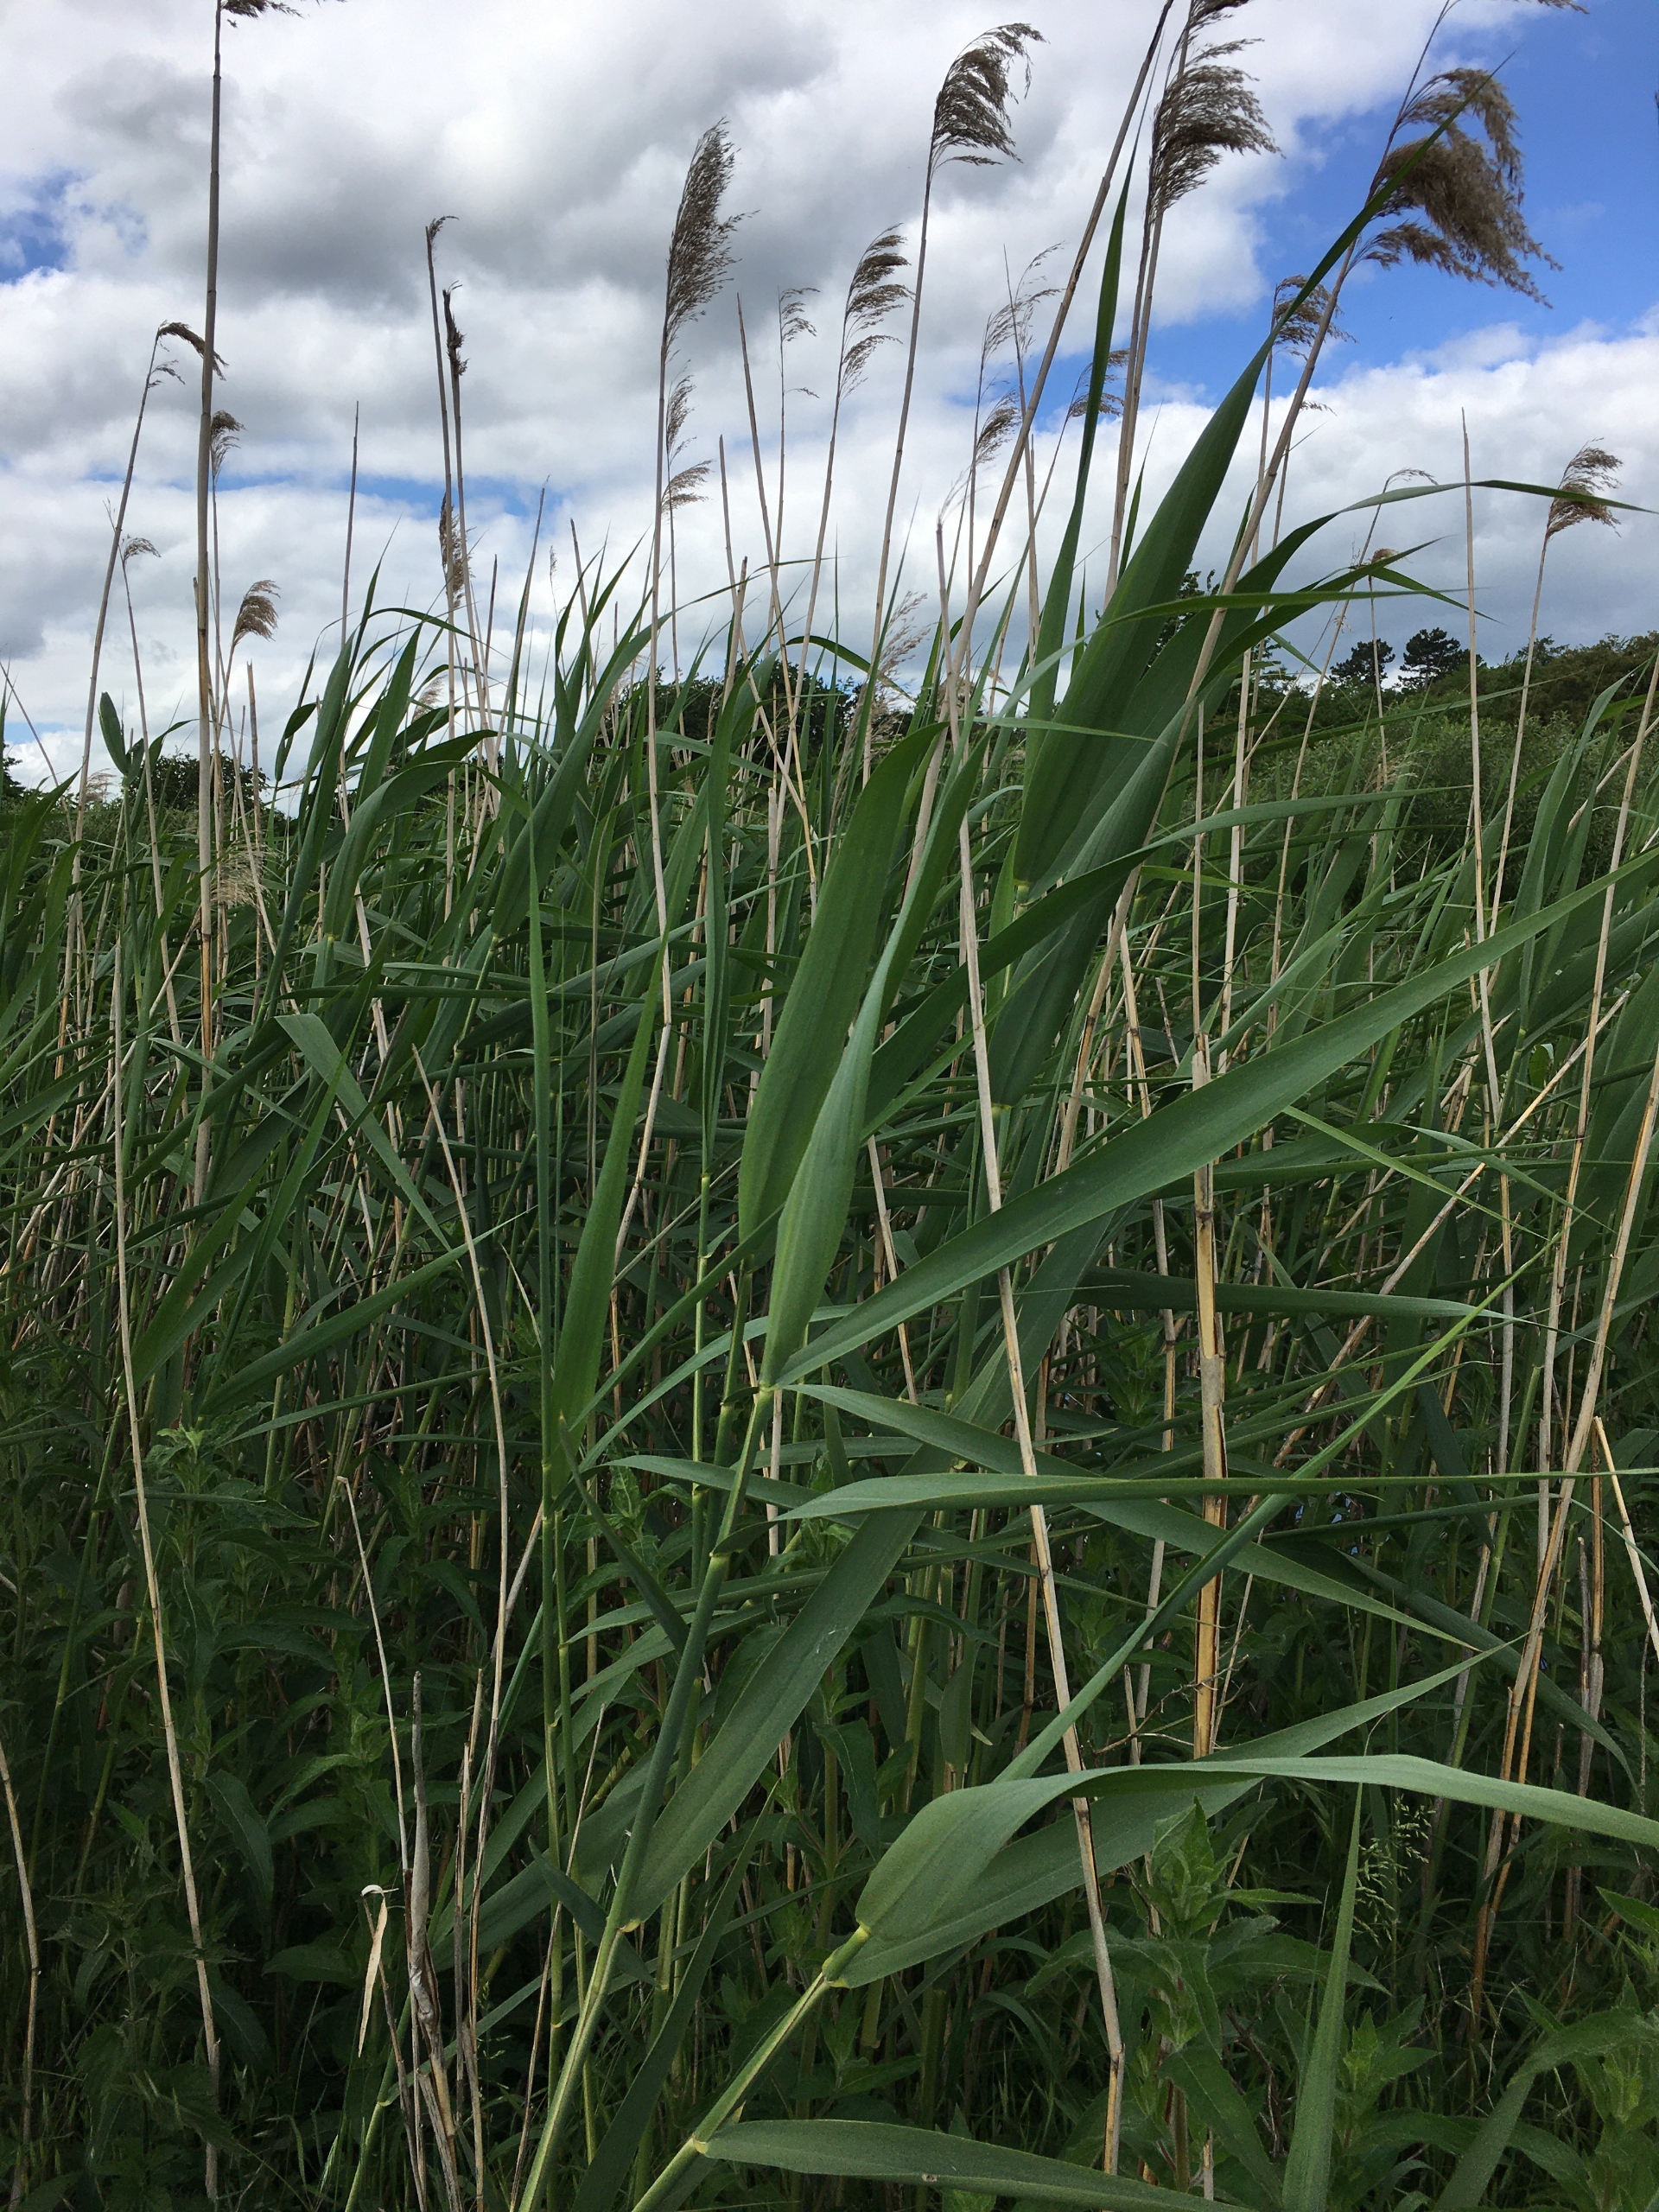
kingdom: Plantae
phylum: Tracheophyta
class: Liliopsida
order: Poales
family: Poaceae
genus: Phragmites
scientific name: Phragmites australis
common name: Tagrør
